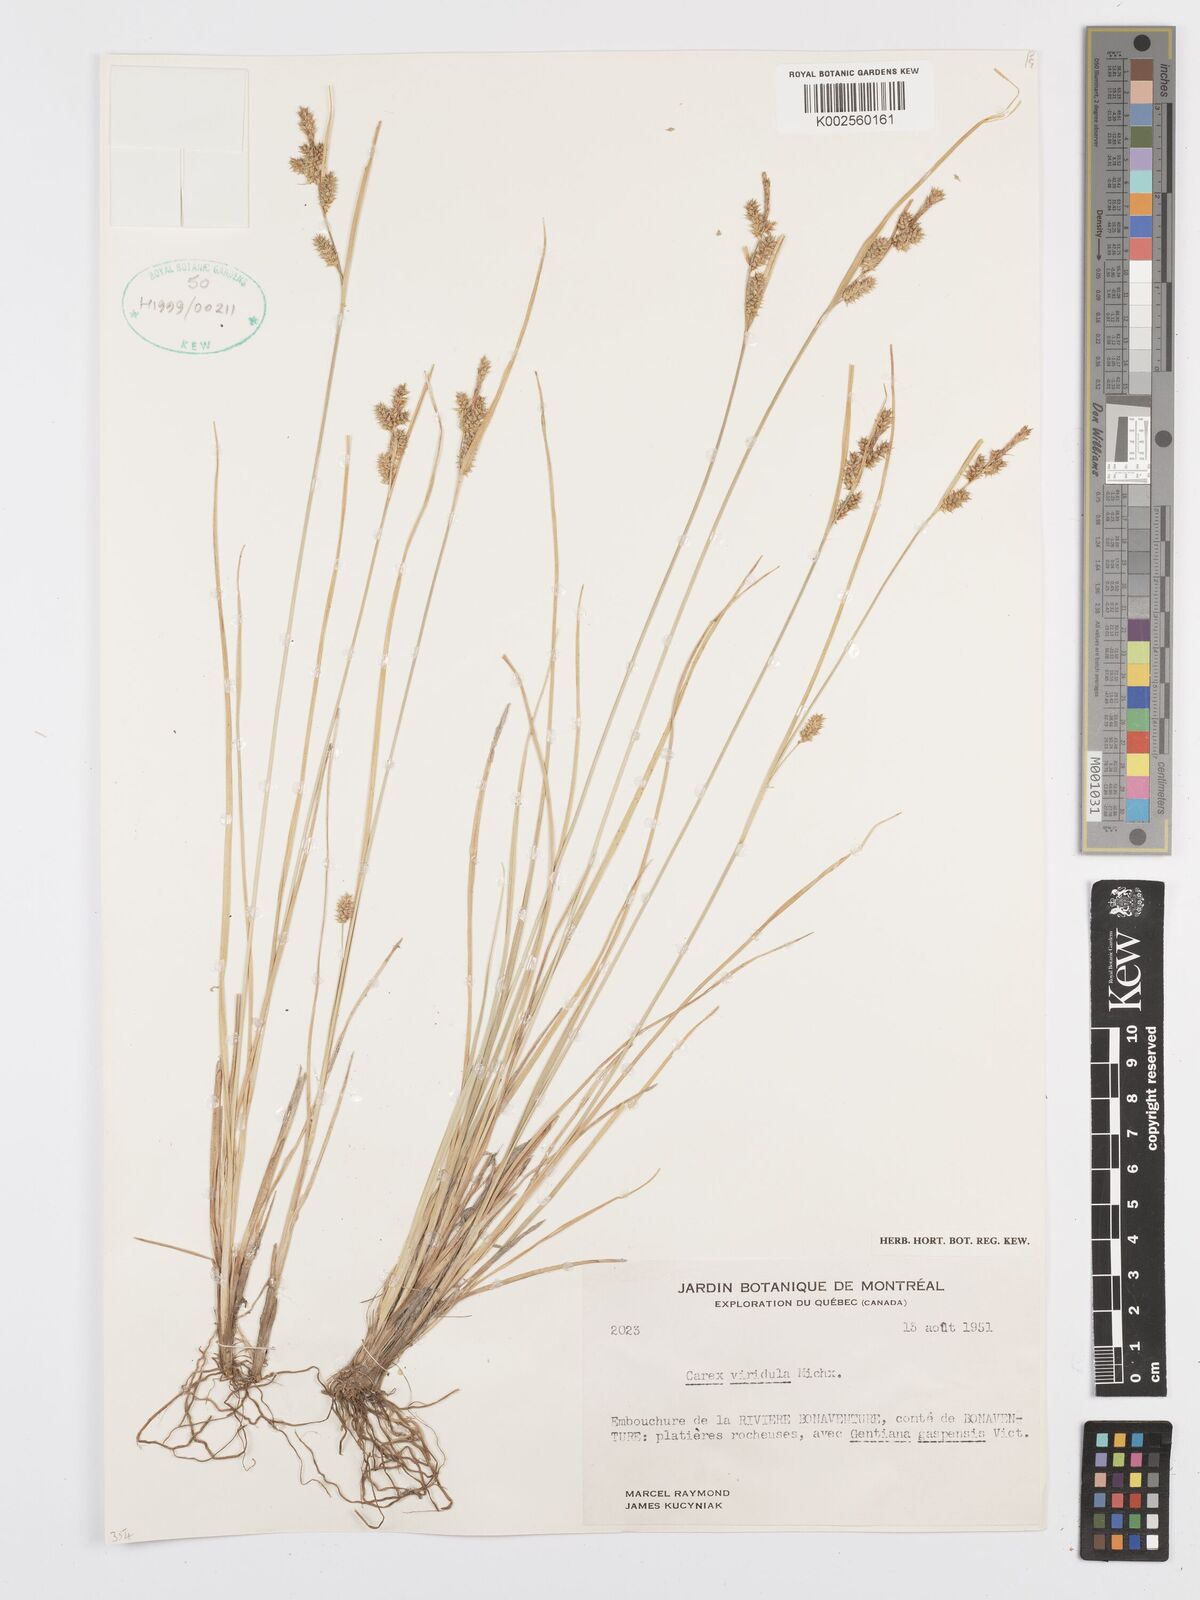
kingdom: Plantae
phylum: Tracheophyta
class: Liliopsida
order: Poales
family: Cyperaceae
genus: Carex
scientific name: Carex oederi
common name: Common & small-fruited yellow-sedge
